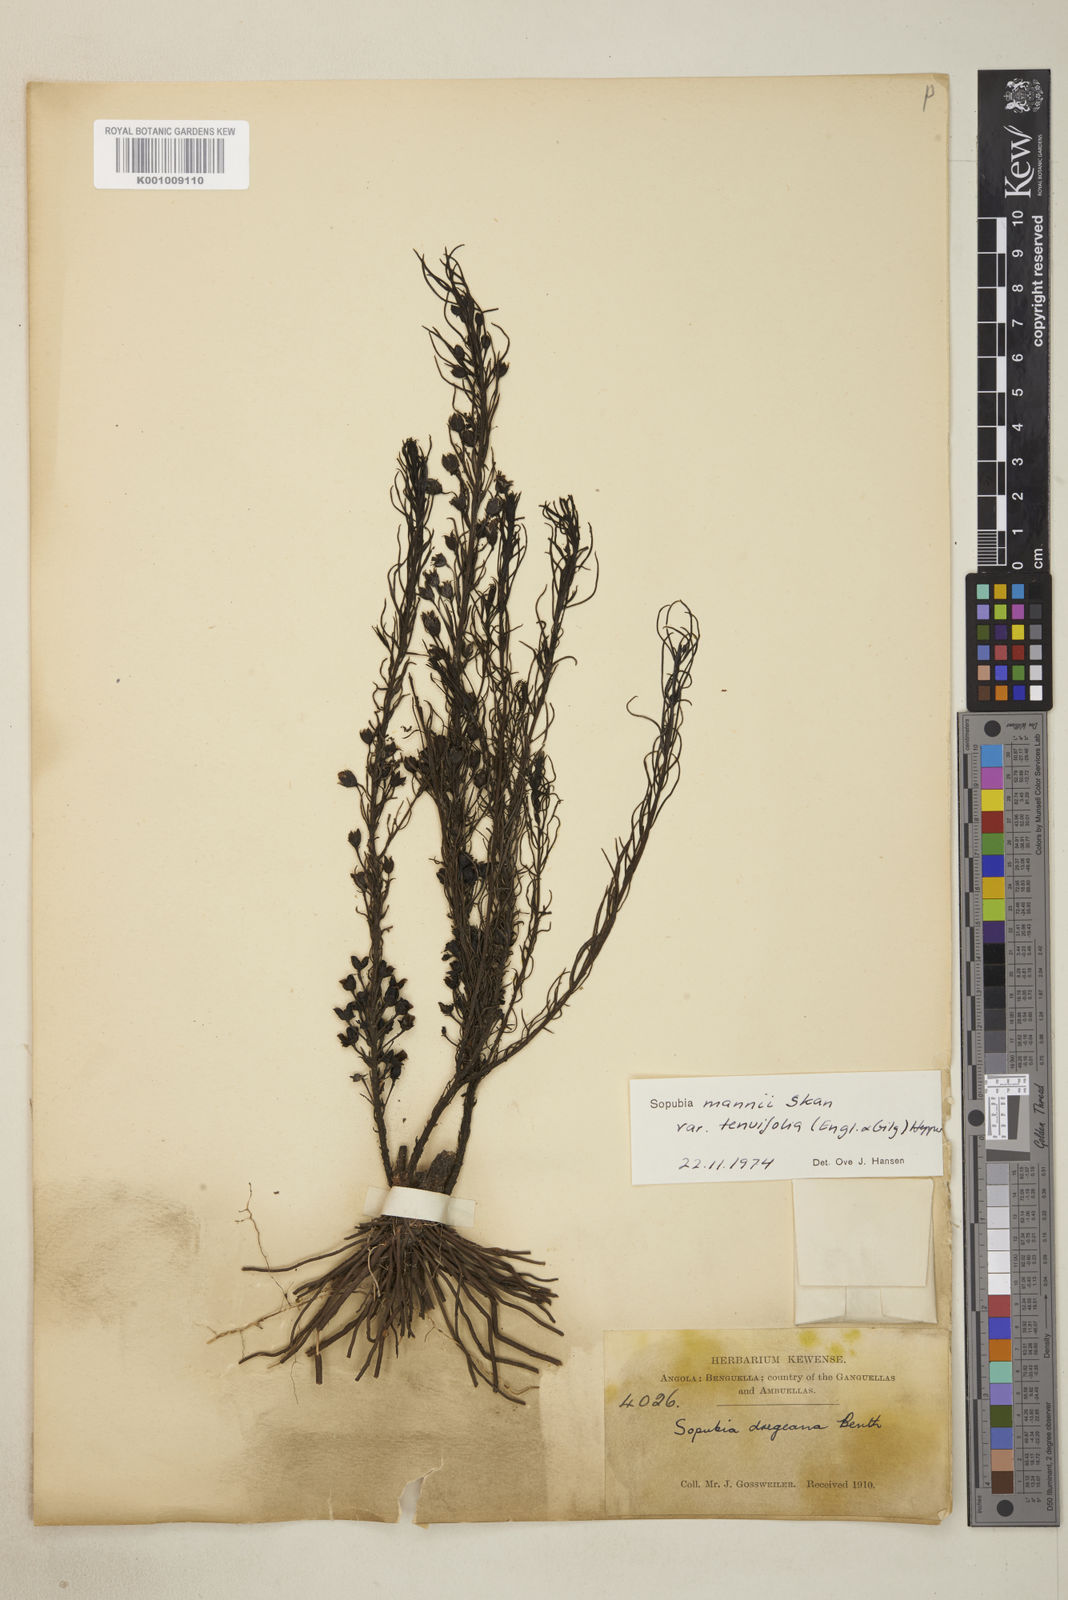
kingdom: Plantae
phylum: Tracheophyta
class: Magnoliopsida
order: Lamiales
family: Orobanchaceae
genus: Sopubia
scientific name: Sopubia mannii
